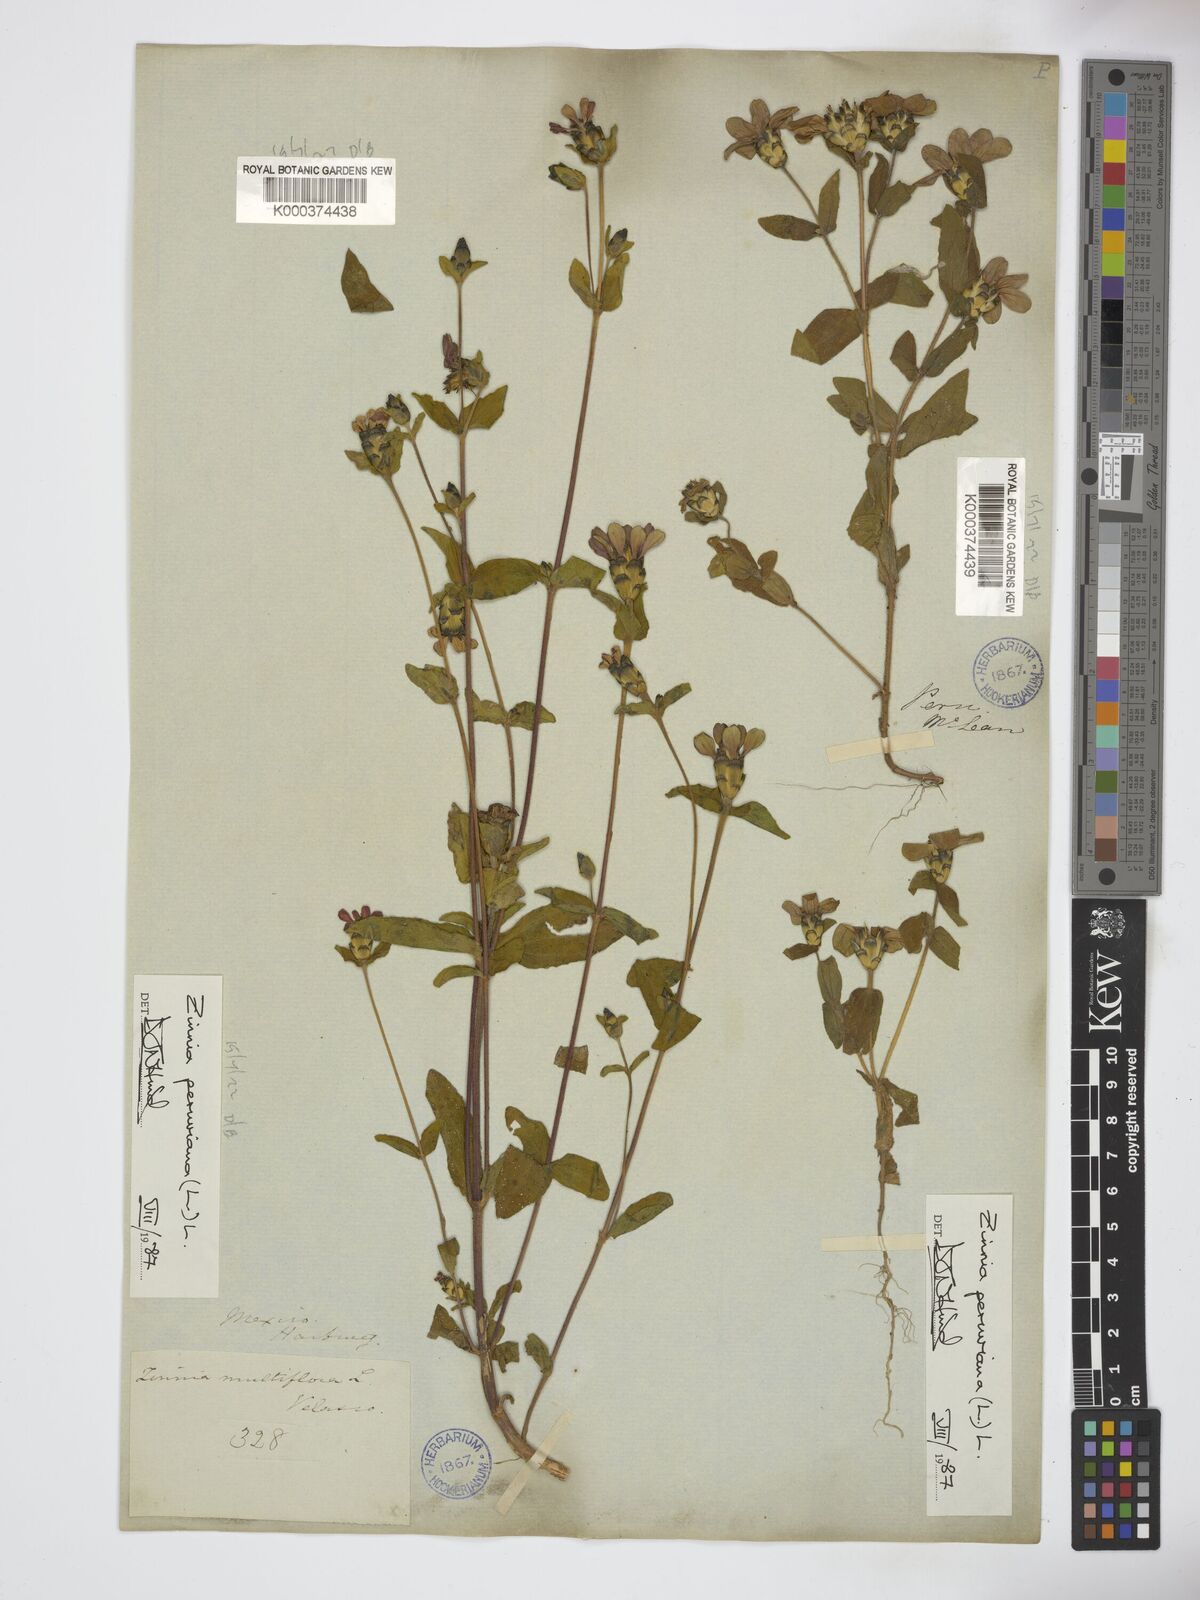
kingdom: Plantae
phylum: Tracheophyta
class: Magnoliopsida
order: Asterales
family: Asteraceae
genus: Zinnia
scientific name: Zinnia peruviana
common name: Peruvian zinnia
